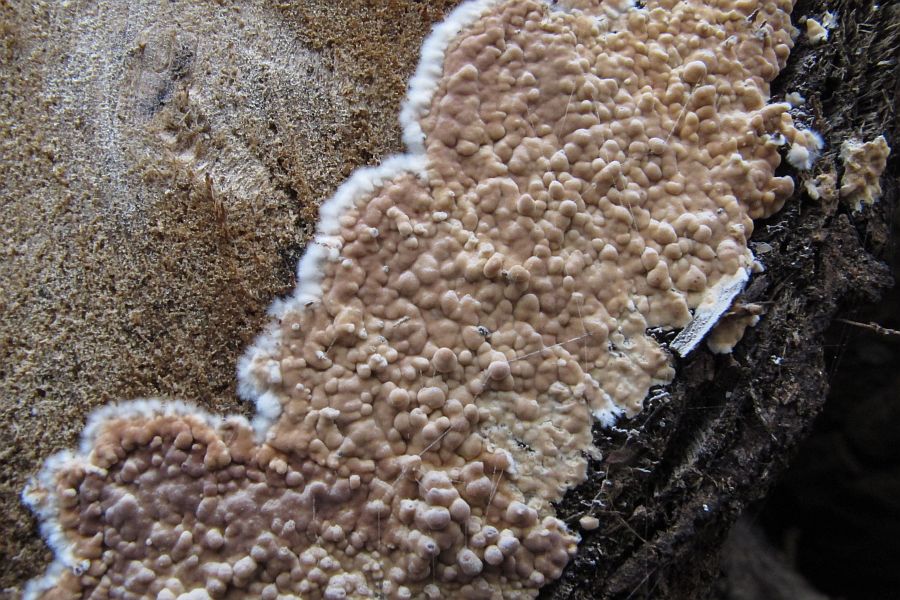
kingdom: Fungi
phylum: Basidiomycota
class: Agaricomycetes
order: Agaricales
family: Physalacriaceae
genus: Cylindrobasidium
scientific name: Cylindrobasidium evolvens
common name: sprækkehinde
